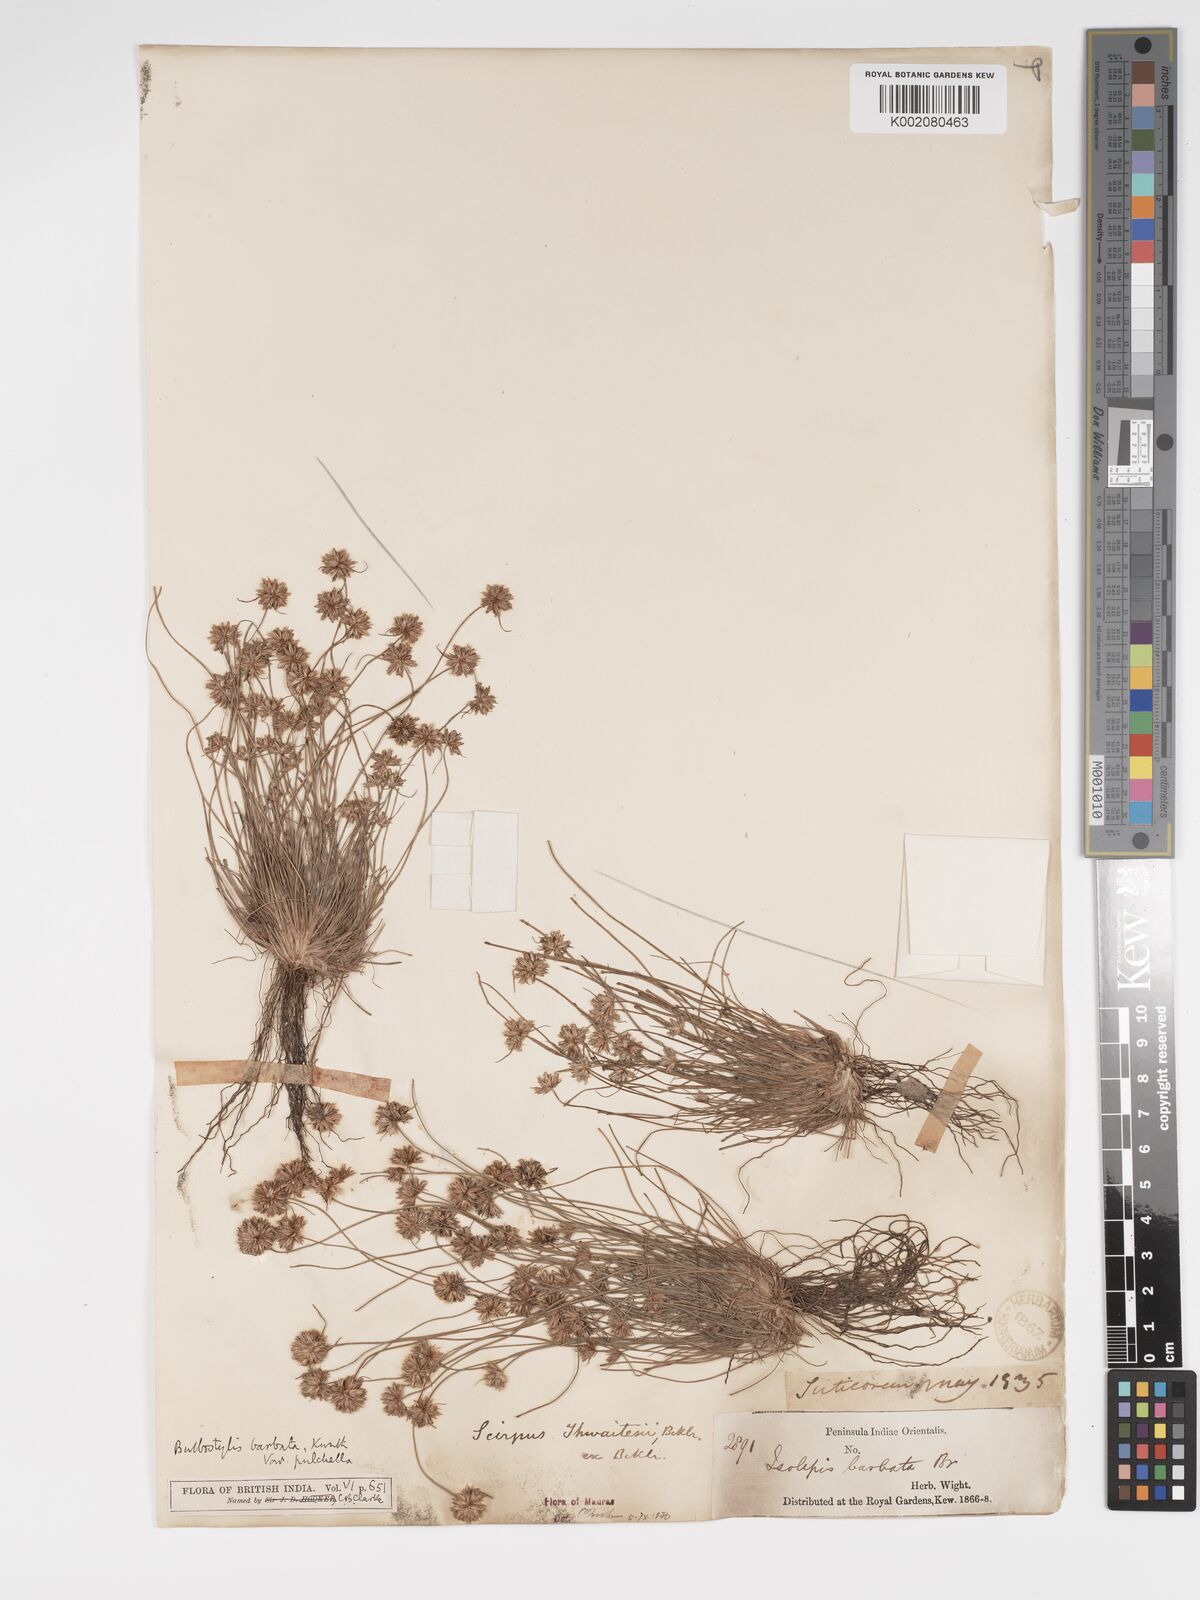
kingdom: Plantae
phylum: Tracheophyta
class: Liliopsida
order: Poales
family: Cyperaceae
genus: Bulbostylis
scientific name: Bulbostylis barbata
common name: Watergrass
